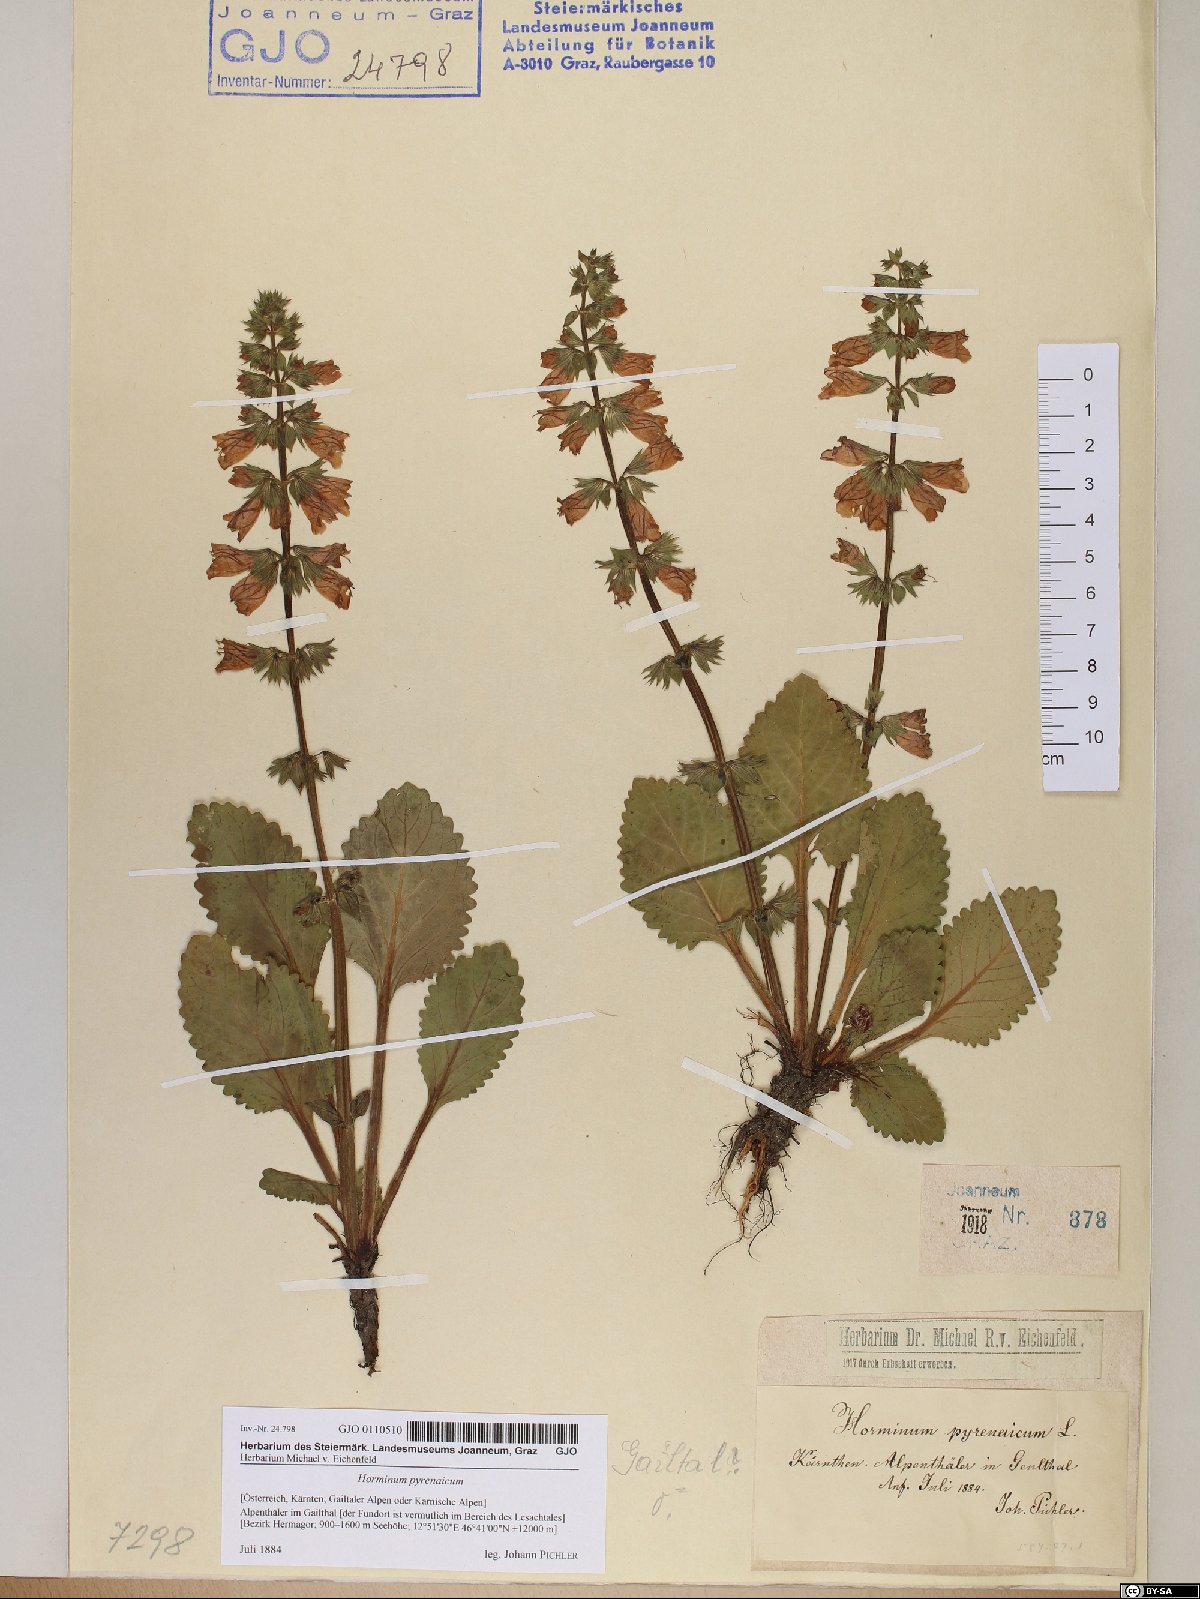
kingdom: Plantae
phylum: Tracheophyta
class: Magnoliopsida
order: Lamiales
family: Lamiaceae
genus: Horminum
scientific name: Horminum pyrenaicum
